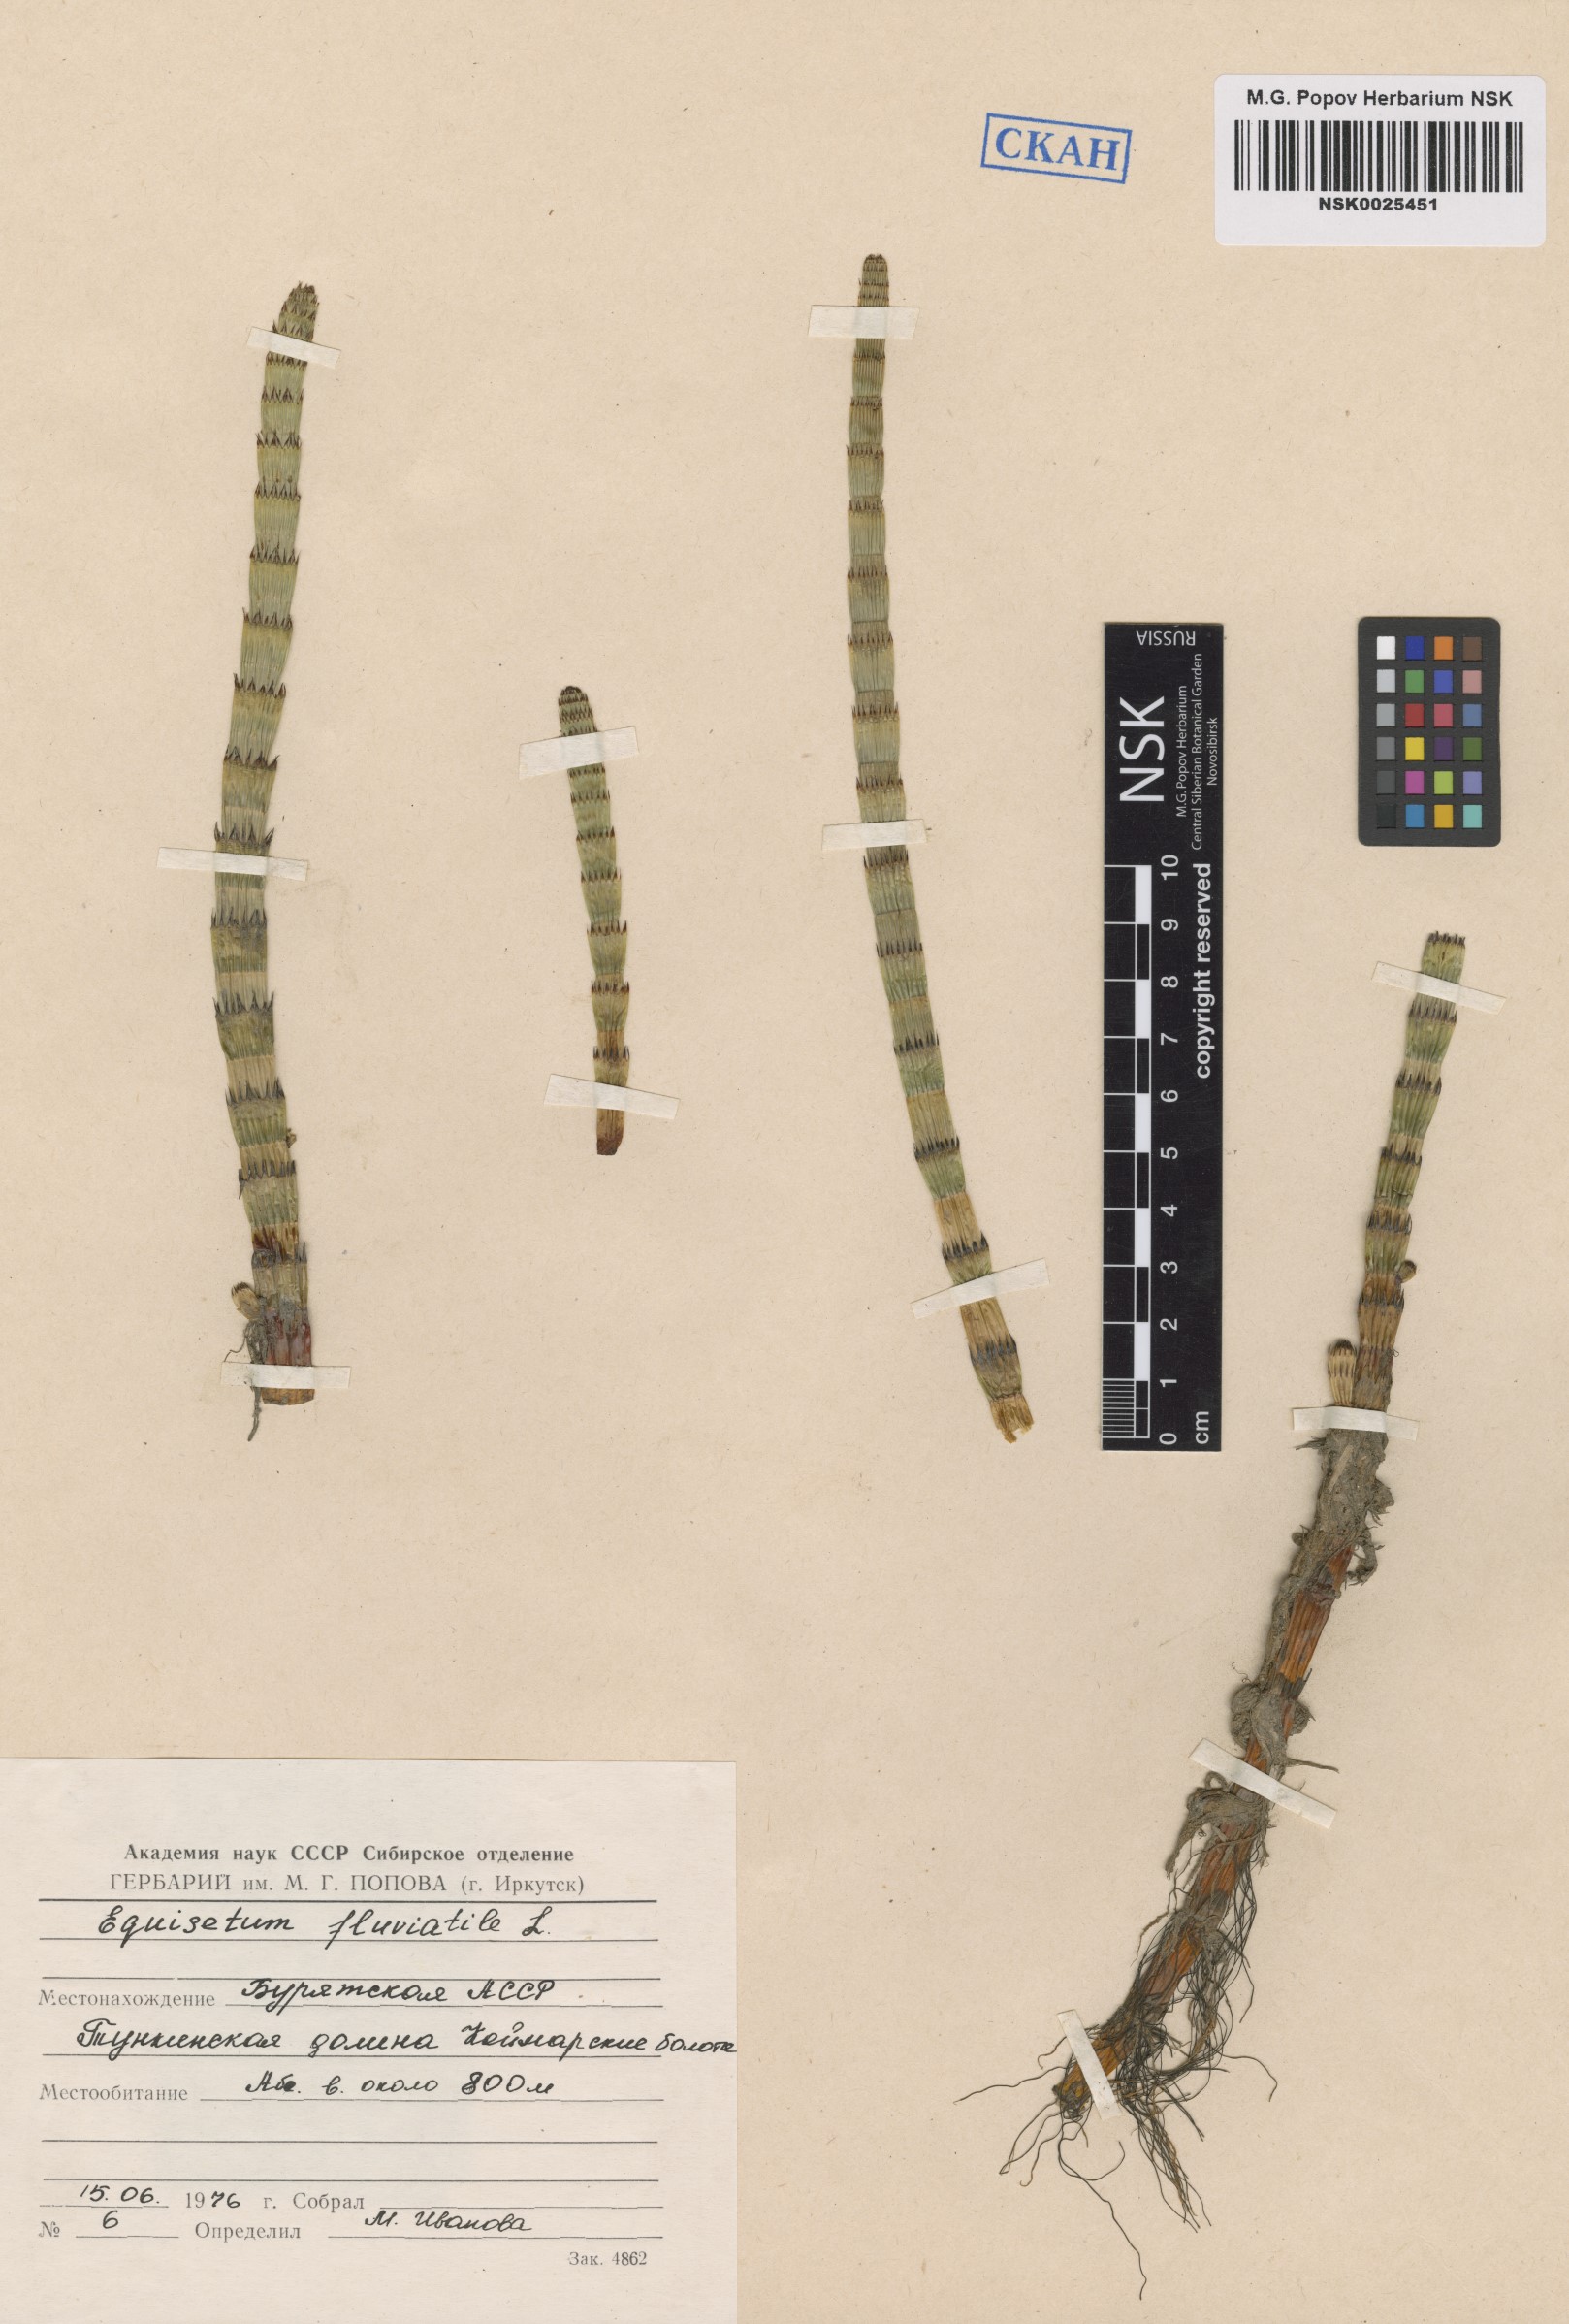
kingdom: Plantae
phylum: Tracheophyta
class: Polypodiopsida
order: Equisetales
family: Equisetaceae
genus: Equisetum
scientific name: Equisetum fluviatile
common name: Water horsetail
